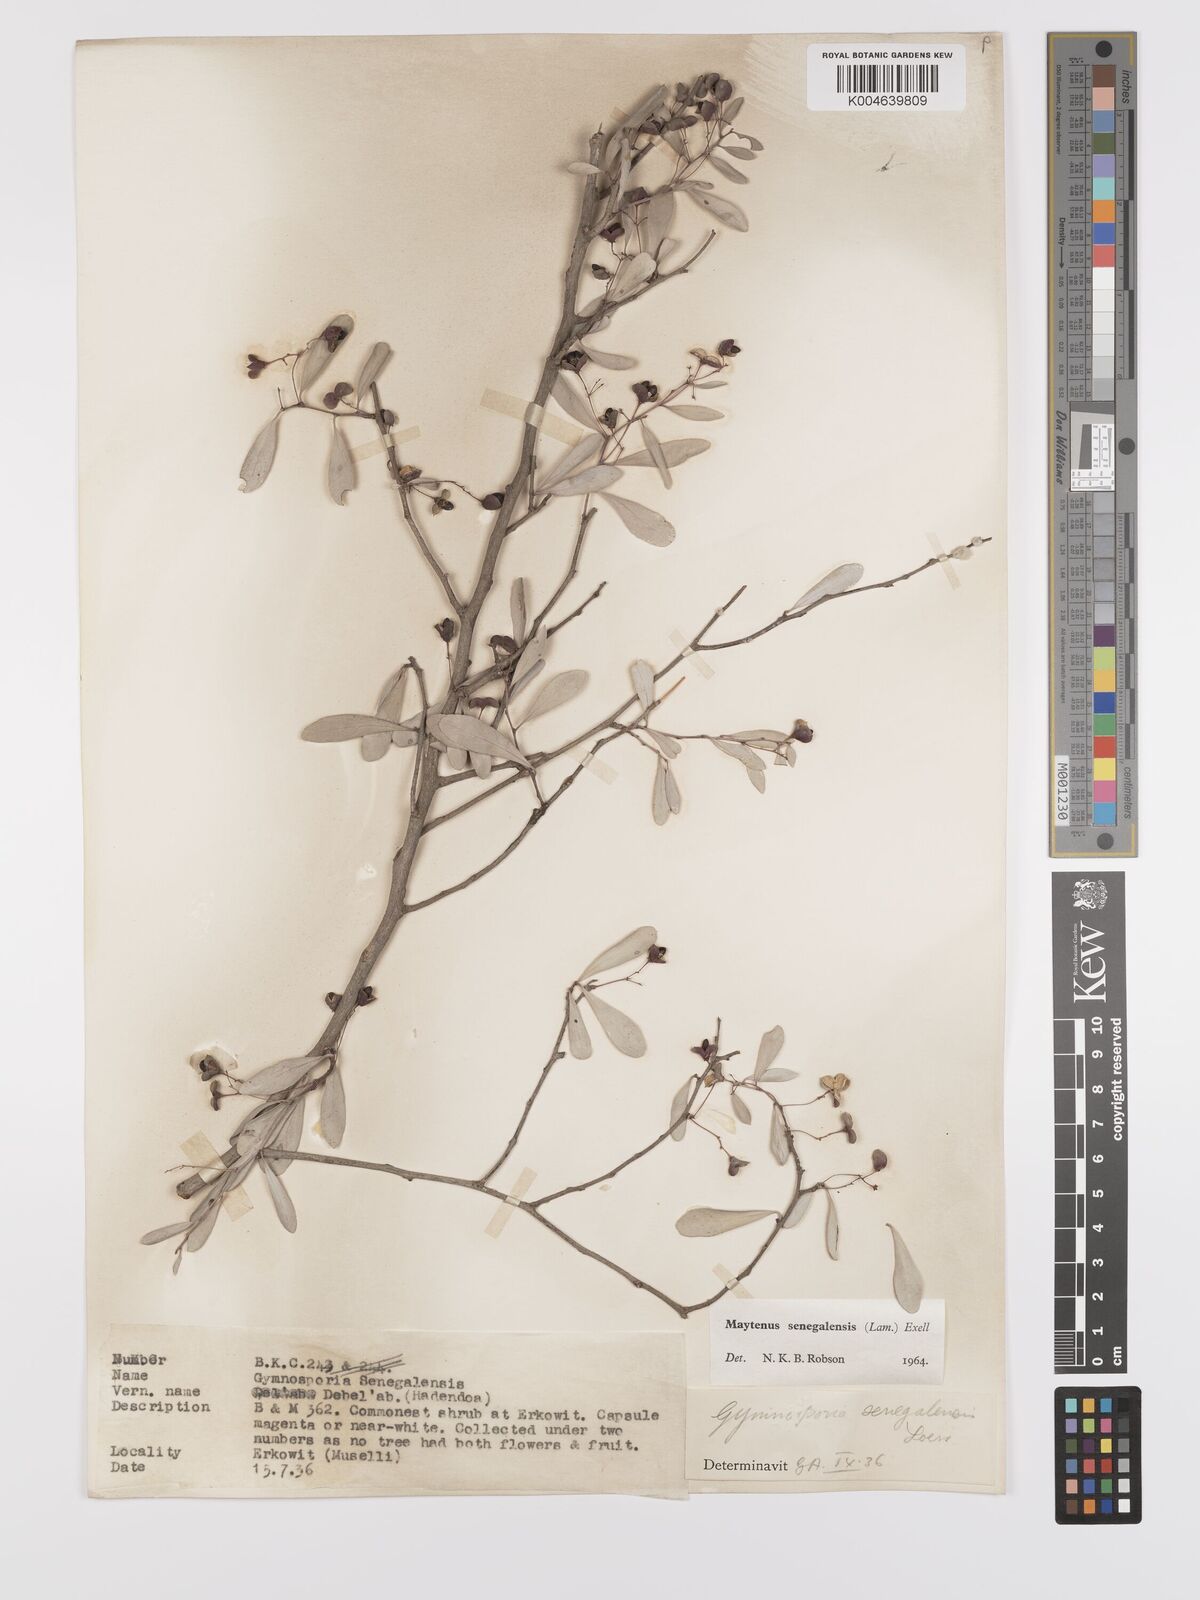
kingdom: Plantae
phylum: Tracheophyta
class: Magnoliopsida
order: Celastrales
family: Celastraceae
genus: Gymnosporia
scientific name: Gymnosporia senegalensis
